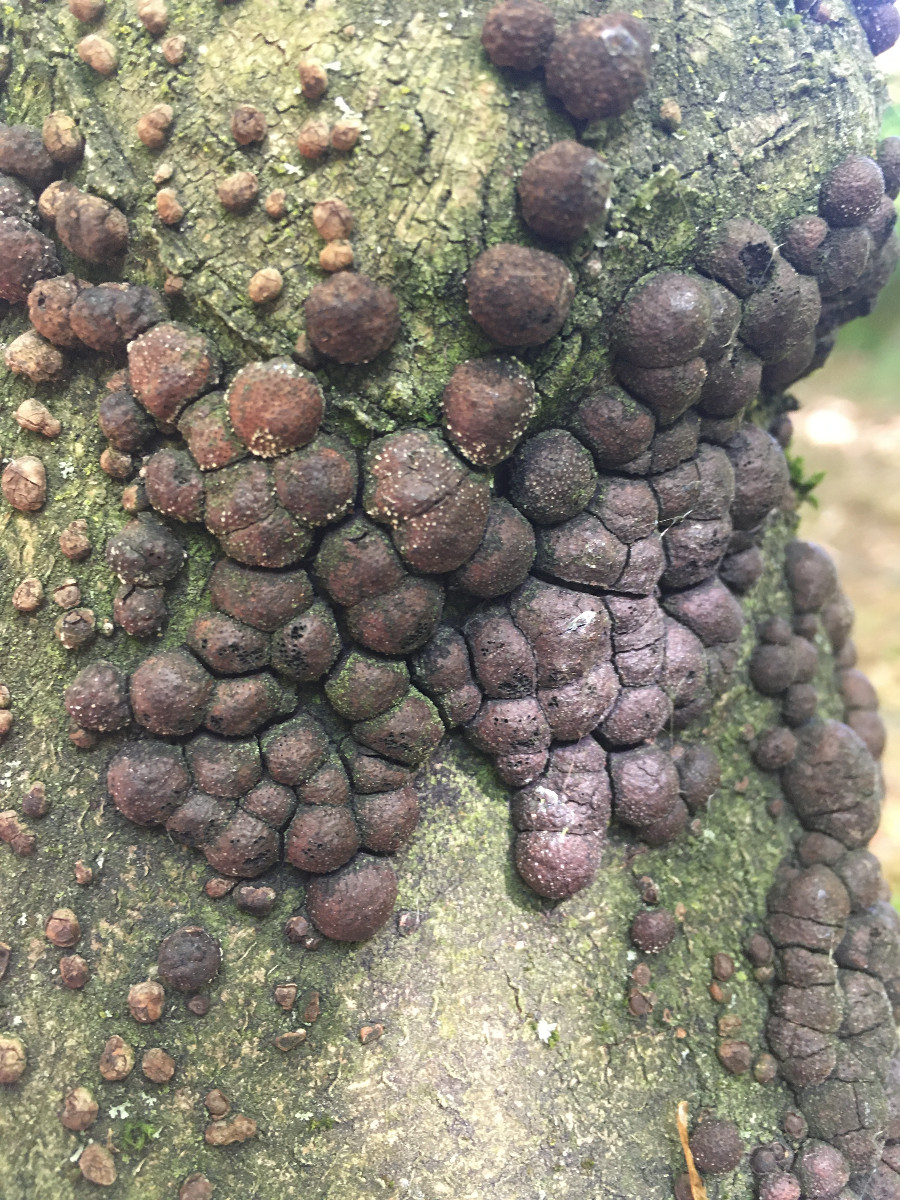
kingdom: Fungi
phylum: Ascomycota
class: Sordariomycetes
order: Xylariales
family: Hypoxylaceae
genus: Hypoxylon
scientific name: Hypoxylon fragiforme
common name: kuljordbær
